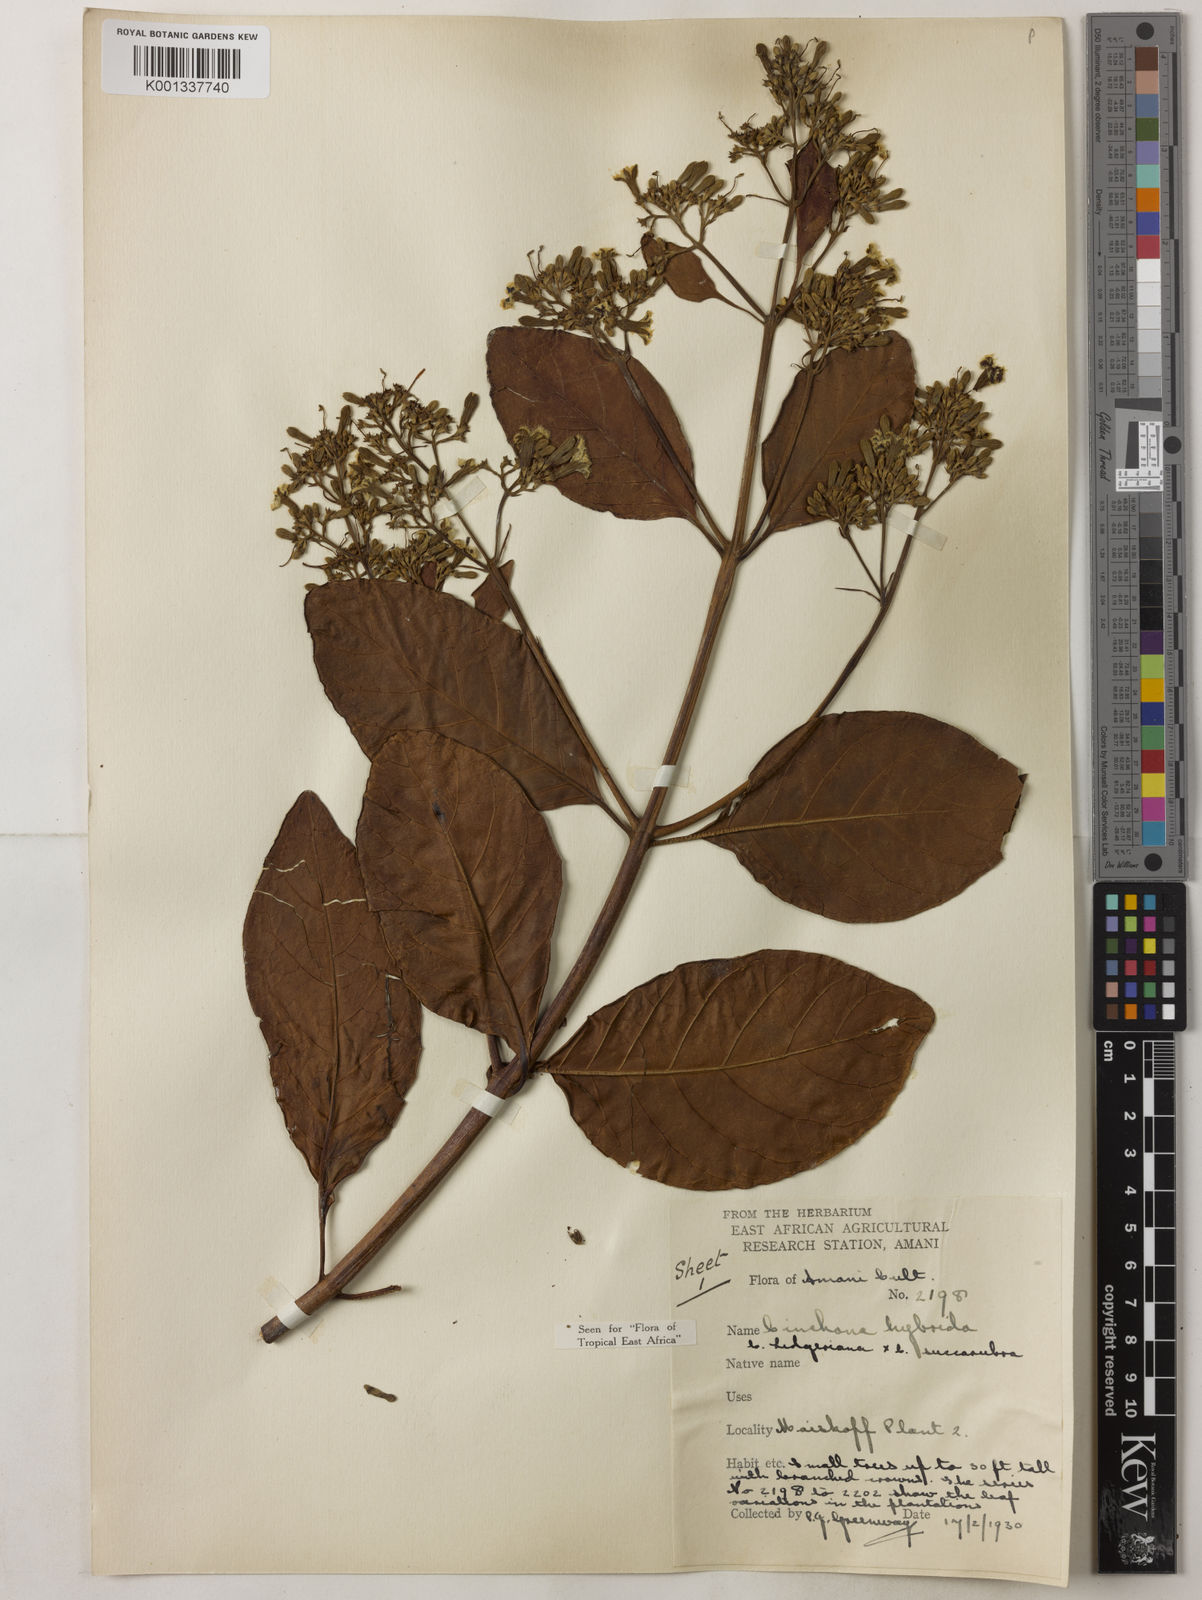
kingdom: Plantae
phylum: Tracheophyta
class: Magnoliopsida
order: Gentianales
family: Rubiaceae
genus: Cinchona
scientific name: Cinchona
